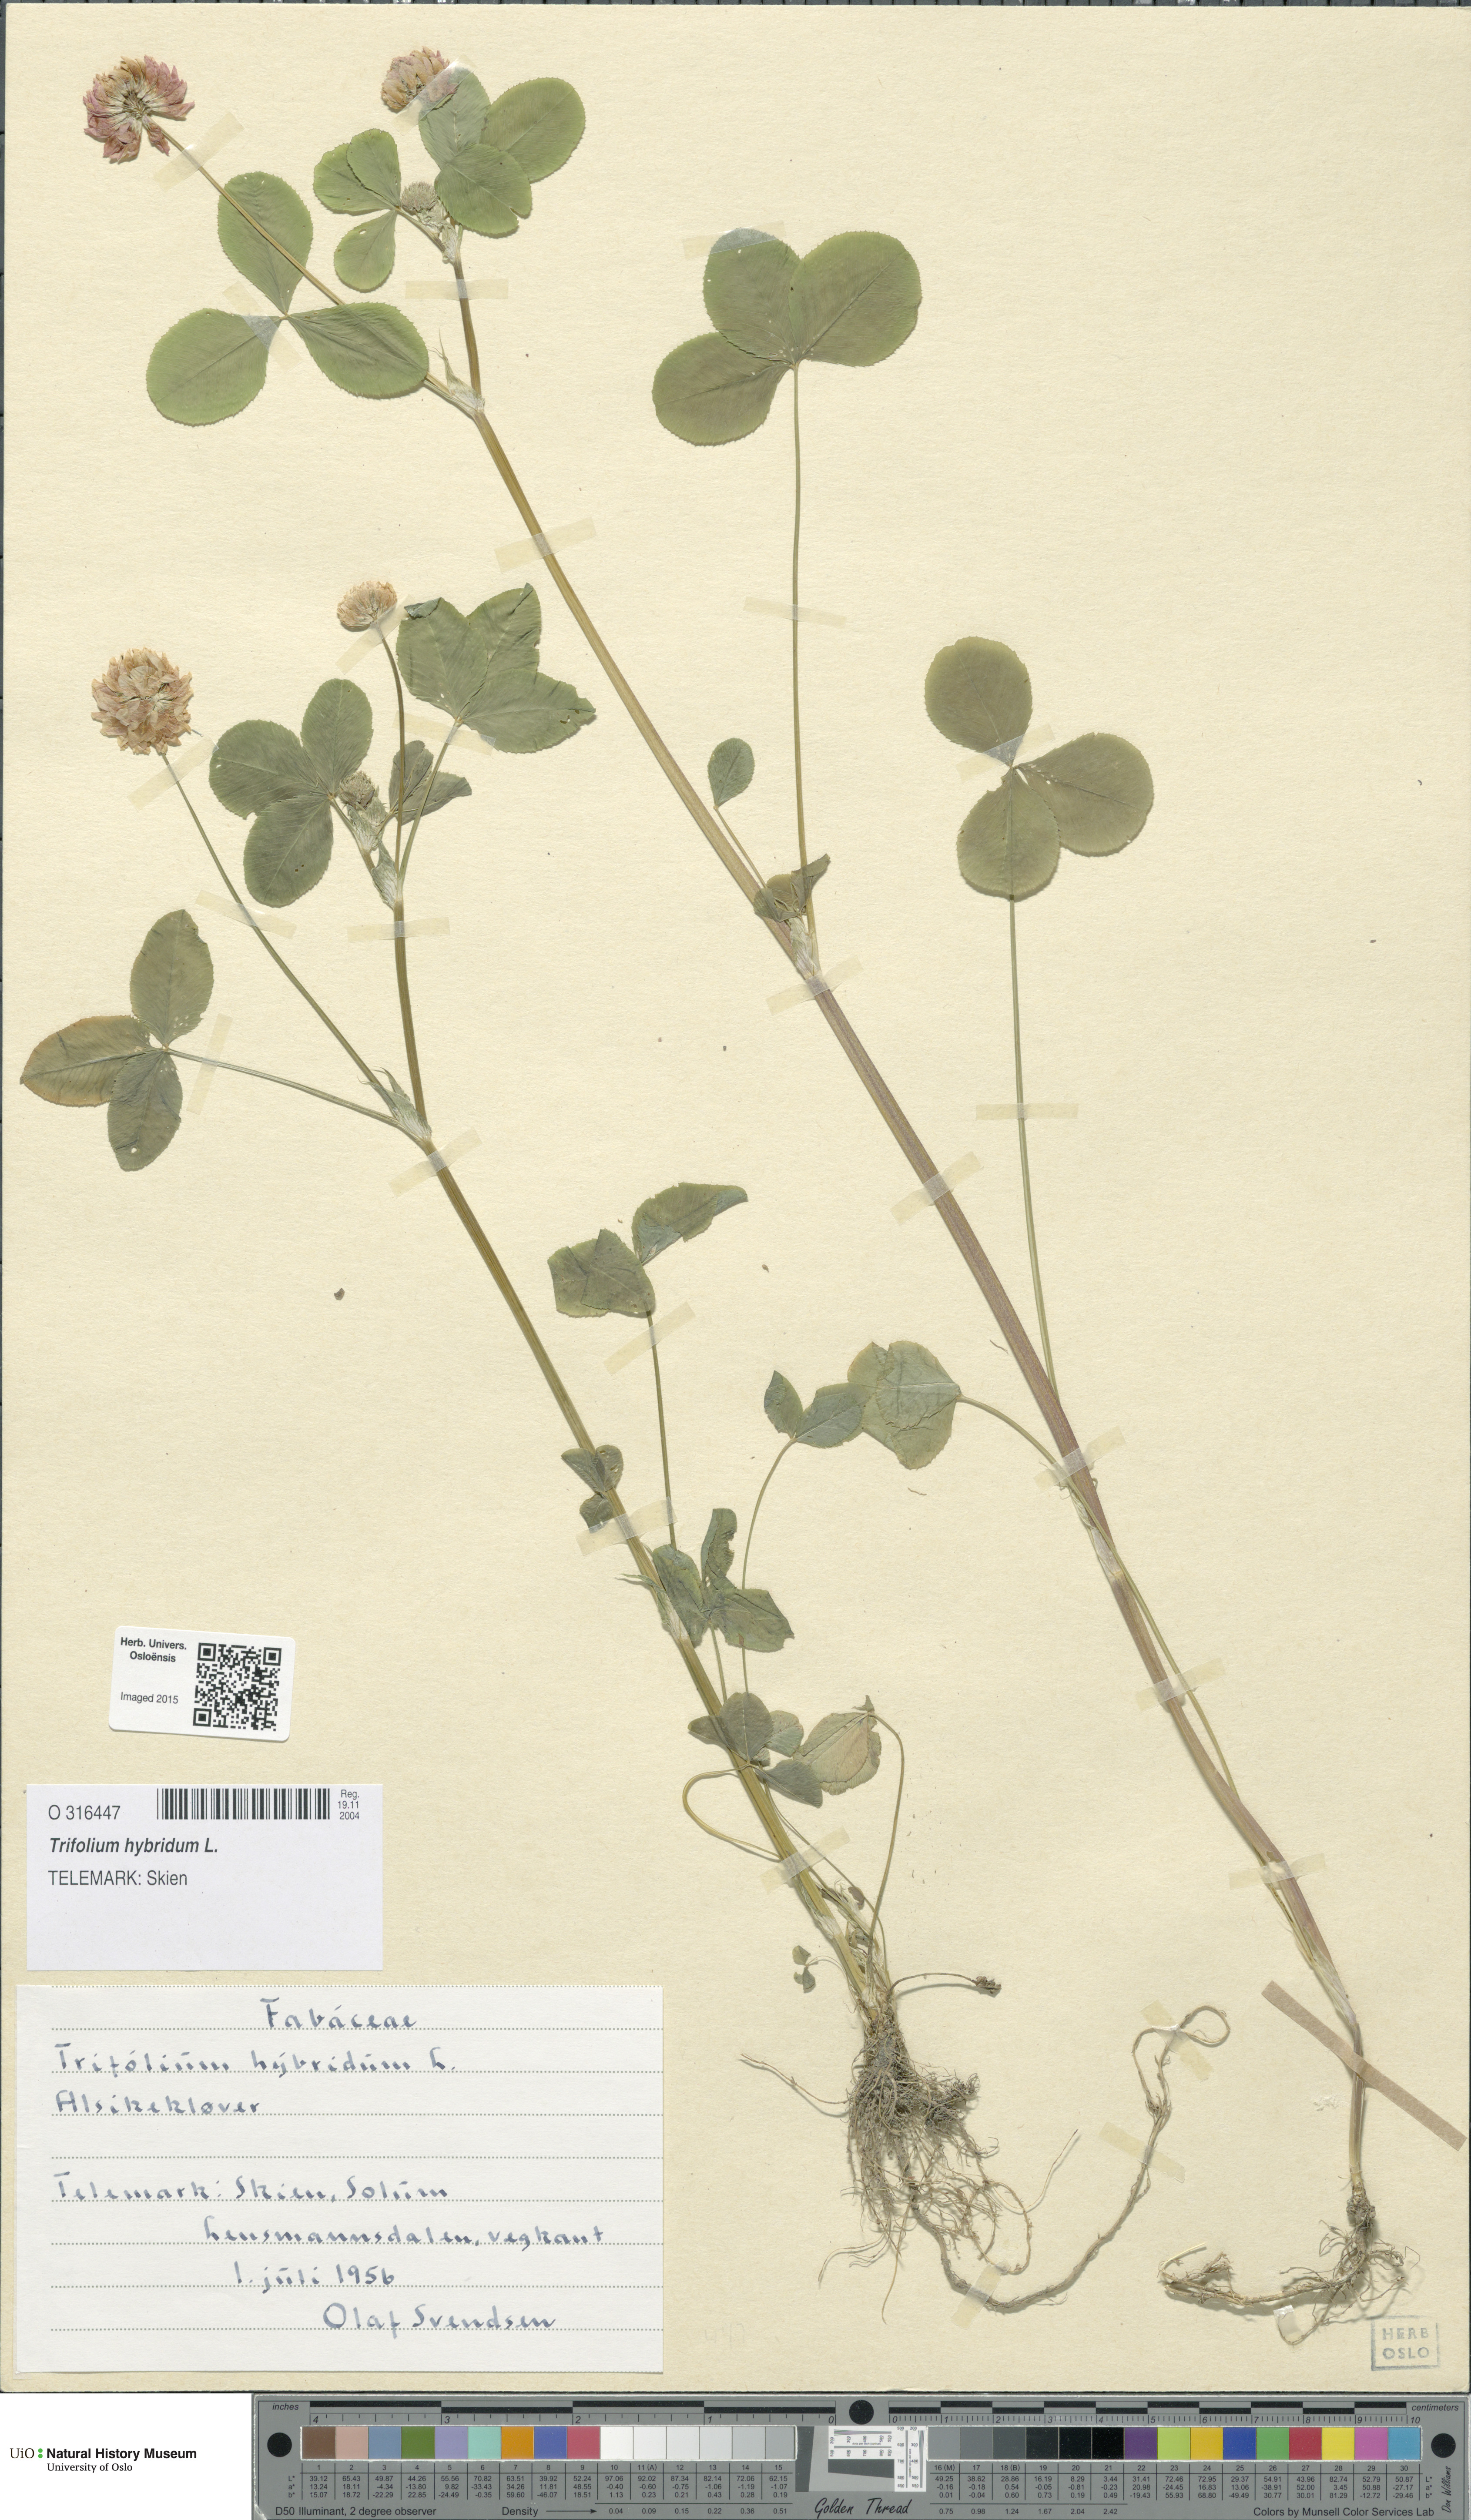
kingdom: Plantae
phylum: Tracheophyta
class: Magnoliopsida
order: Fabales
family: Fabaceae
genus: Trifolium
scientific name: Trifolium hybridum
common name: Alsike clover
